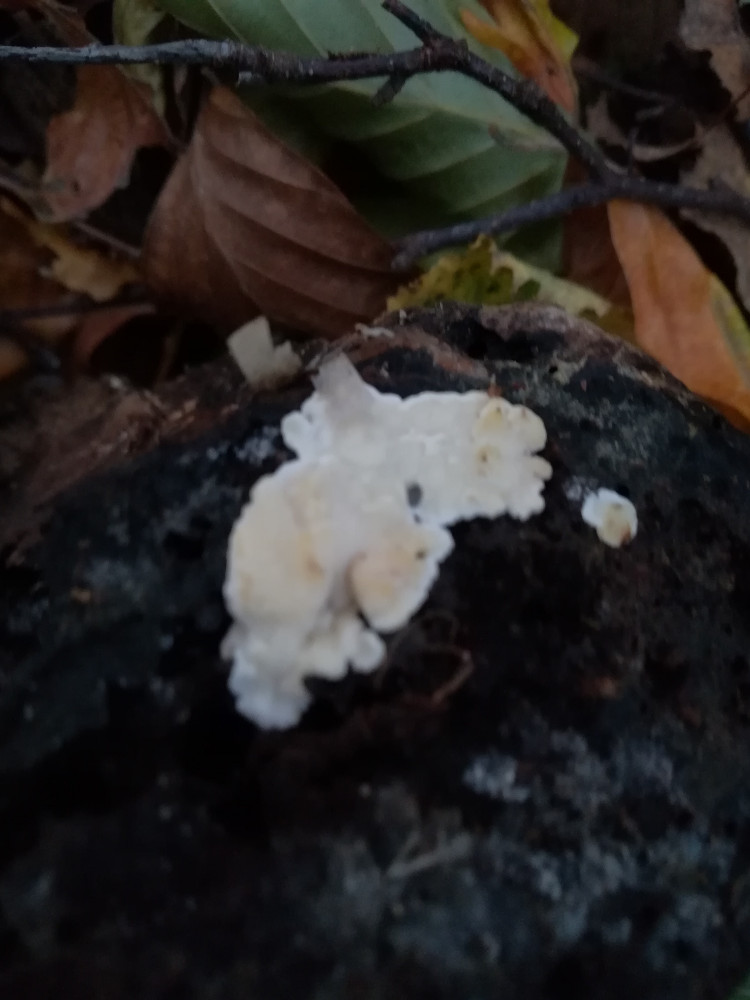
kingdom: Fungi
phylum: Basidiomycota
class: Agaricomycetes
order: Polyporales
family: Steccherinaceae
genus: Antrodiella
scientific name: Antrodiella pallescens
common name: tønder-elastikporesvamp
